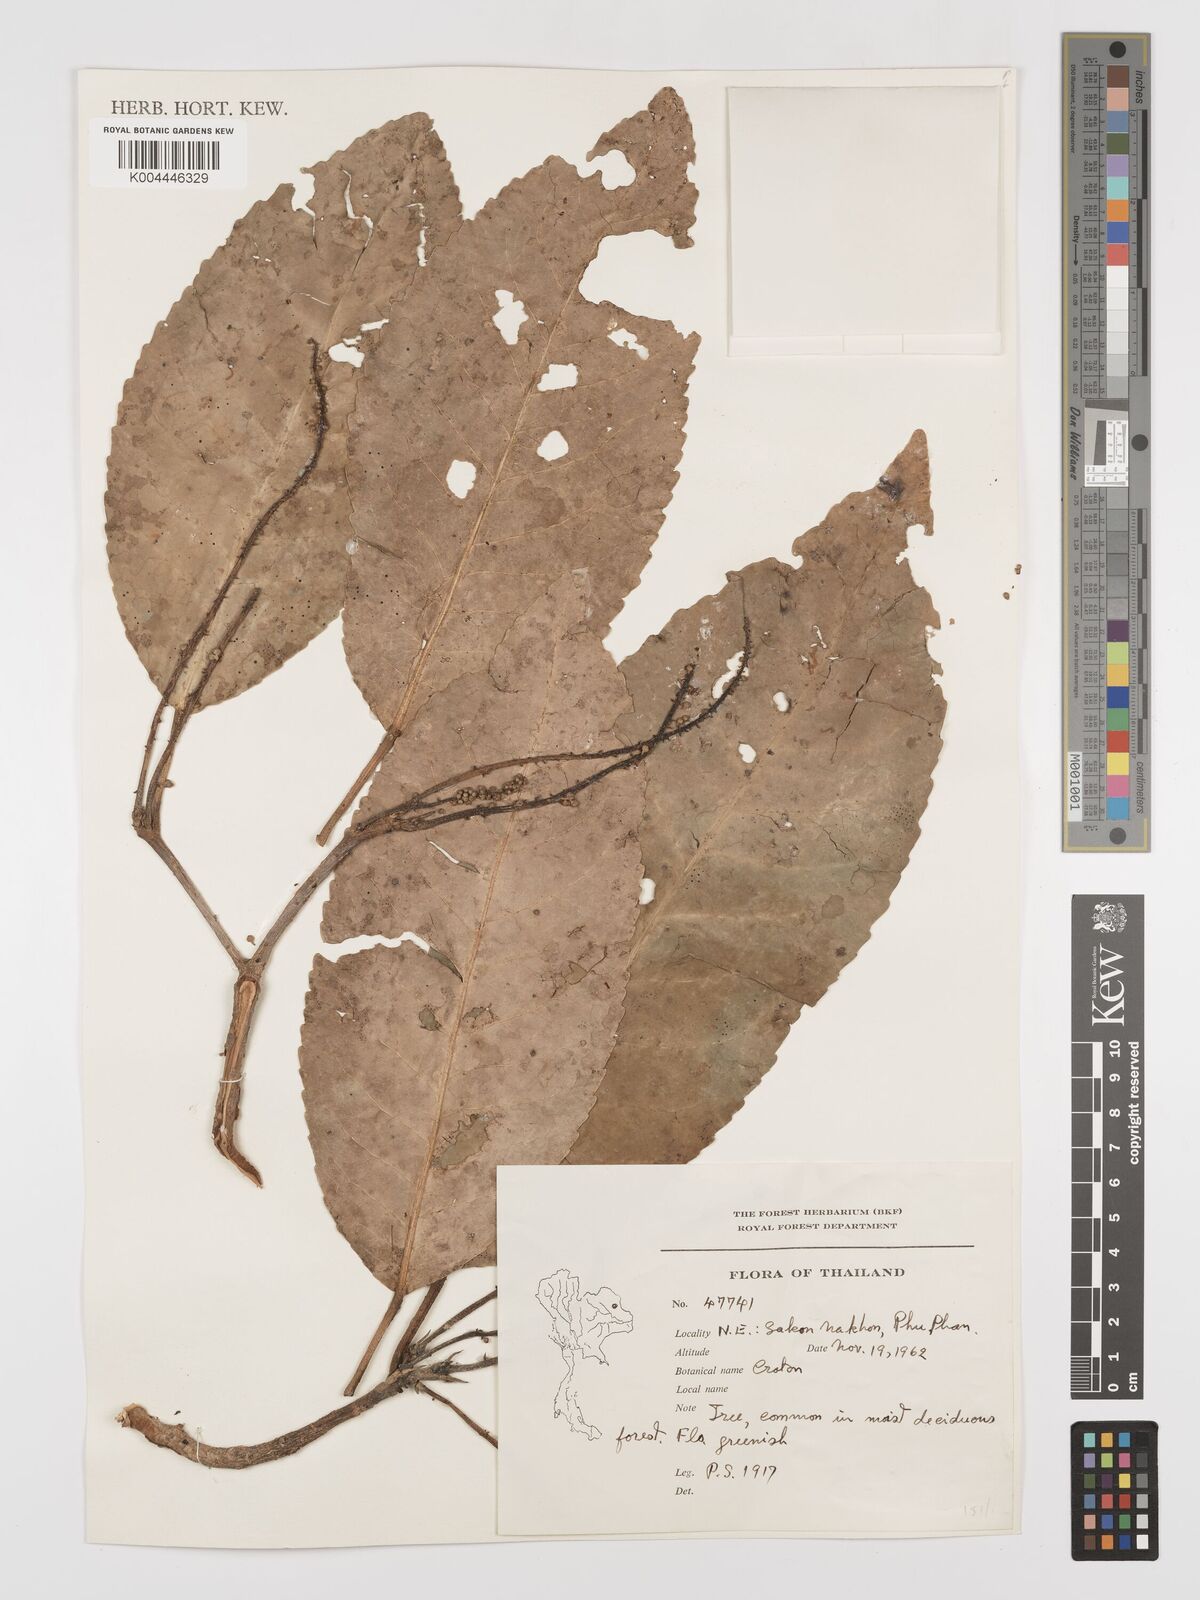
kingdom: Plantae
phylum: Tracheophyta
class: Magnoliopsida
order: Malpighiales
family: Euphorbiaceae
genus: Baliospermum
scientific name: Baliospermum solanifolium
